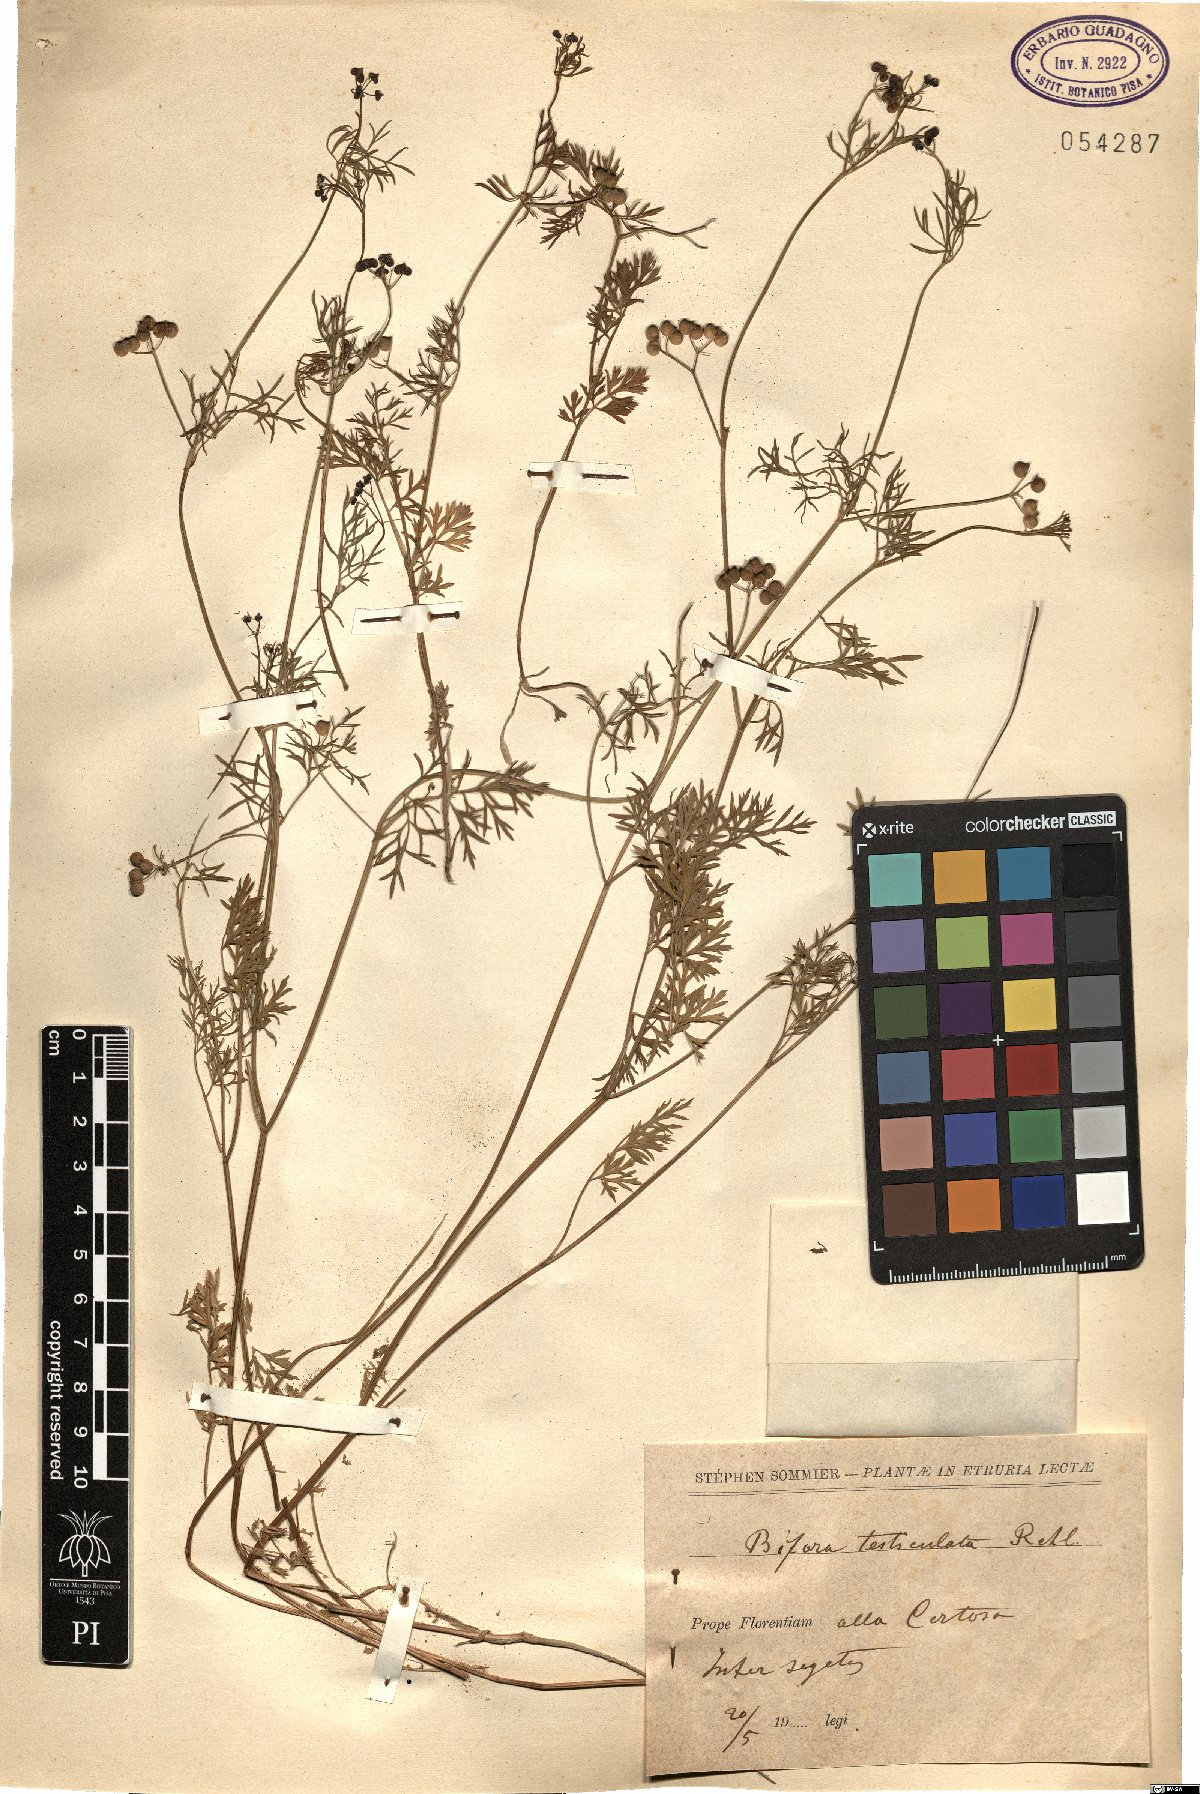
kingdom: Plantae
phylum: Tracheophyta
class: Magnoliopsida
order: Apiales
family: Apiaceae
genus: Bifora
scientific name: Bifora testiculata
